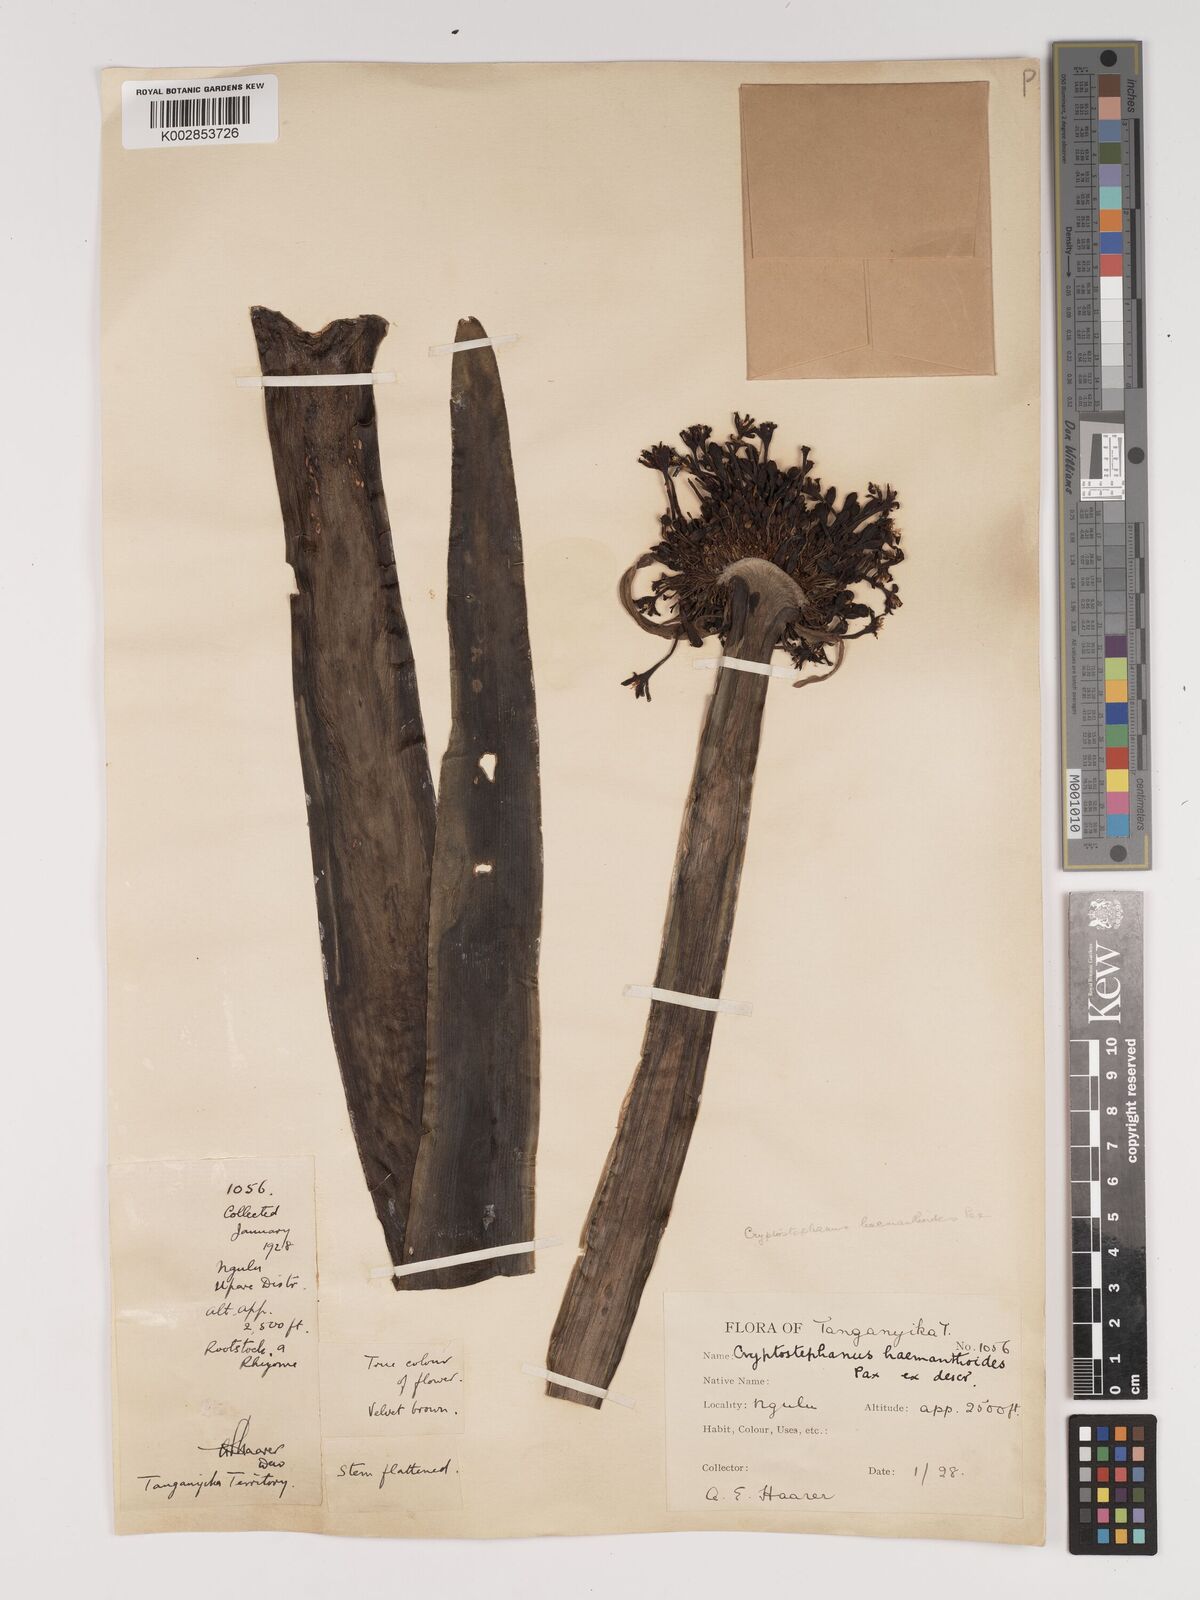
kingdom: Plantae
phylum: Tracheophyta
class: Liliopsida
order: Asparagales
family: Amaryllidaceae
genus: Cryptostephanus
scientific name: Cryptostephanus haemanthoides
